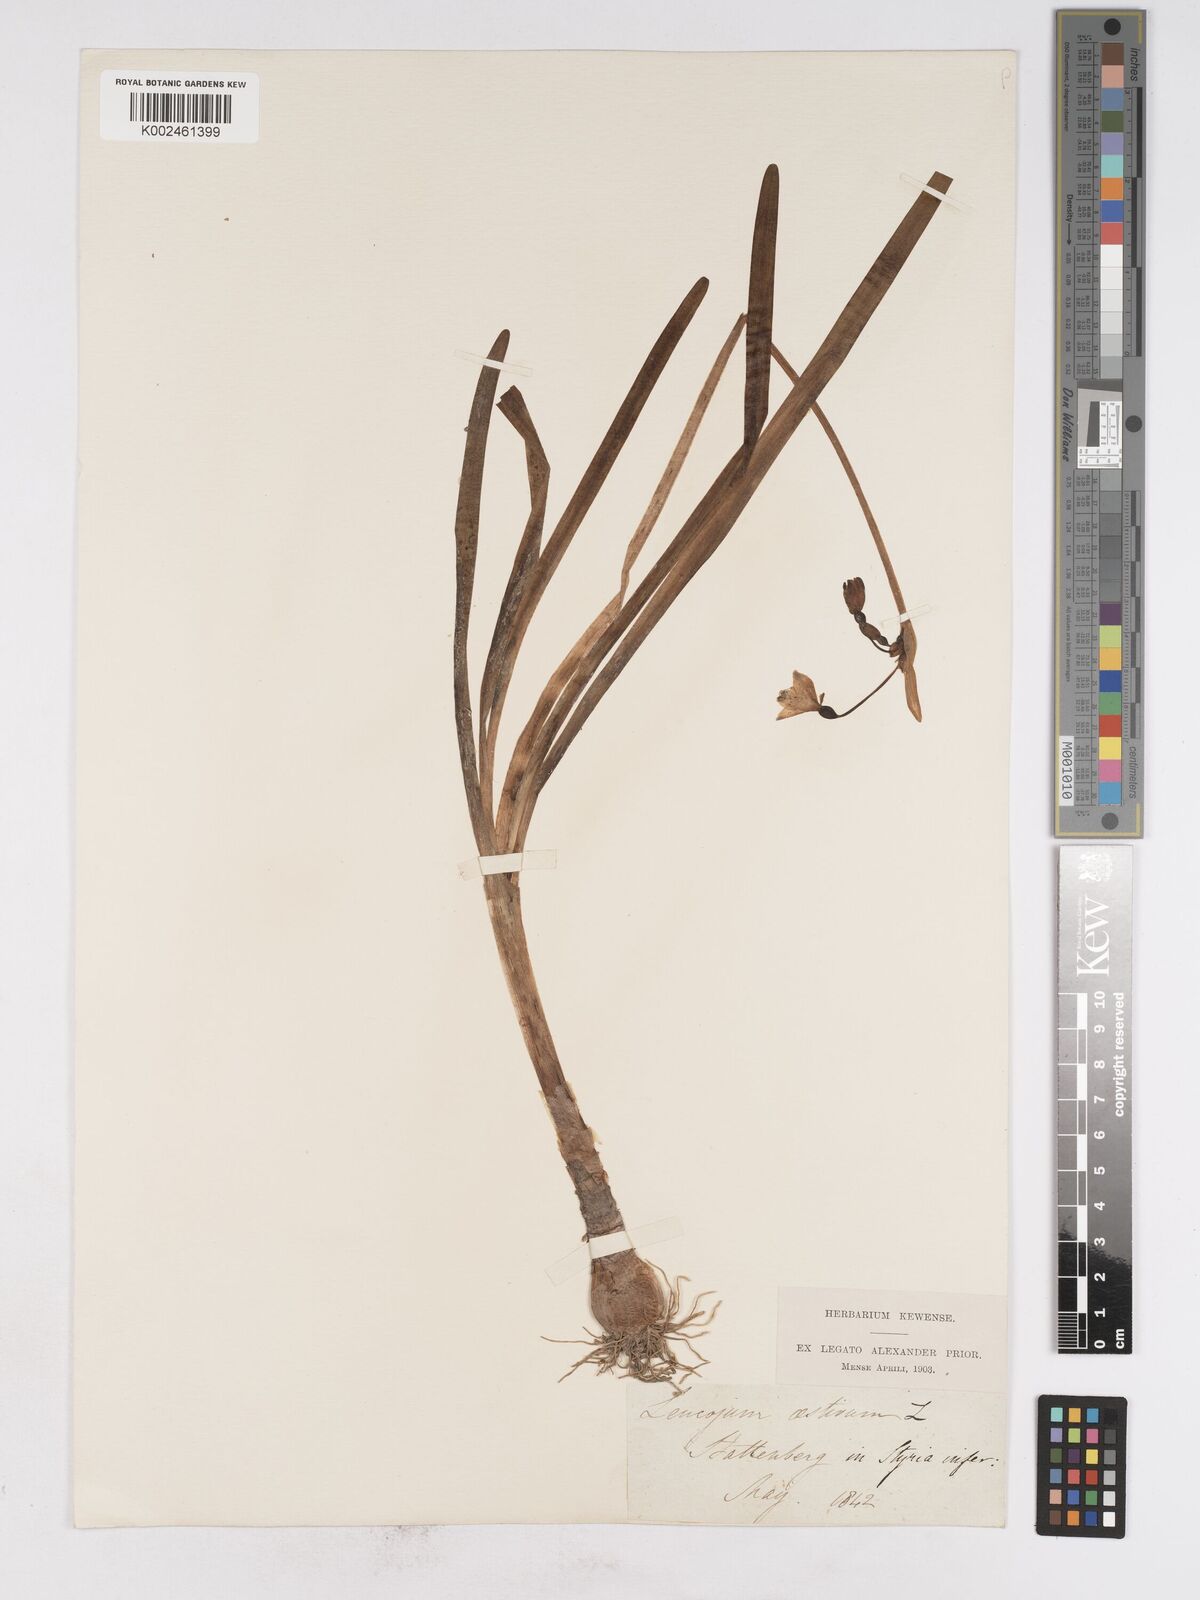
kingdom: Plantae
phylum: Tracheophyta
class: Liliopsida
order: Asparagales
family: Amaryllidaceae
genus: Leucojum
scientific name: Leucojum aestivum
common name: Summer snowflake
